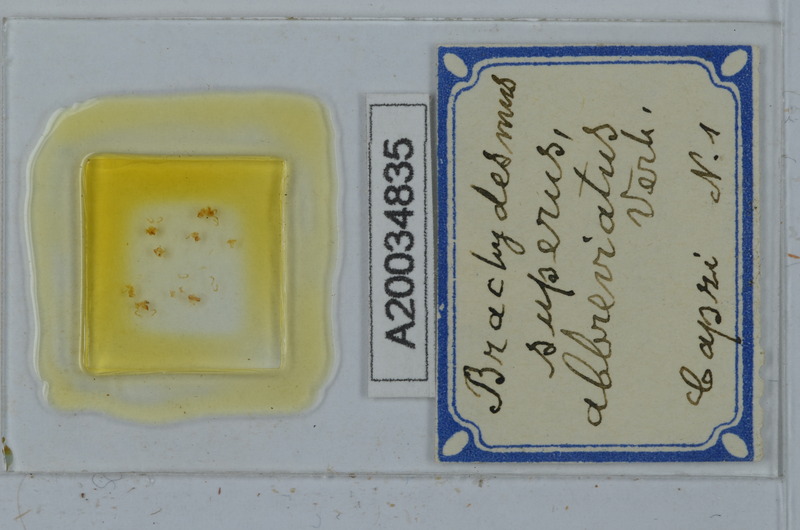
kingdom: Animalia
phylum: Arthropoda
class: Diplopoda
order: Polydesmida
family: Polydesmidae
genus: Brachydesmus
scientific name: Brachydesmus superus
